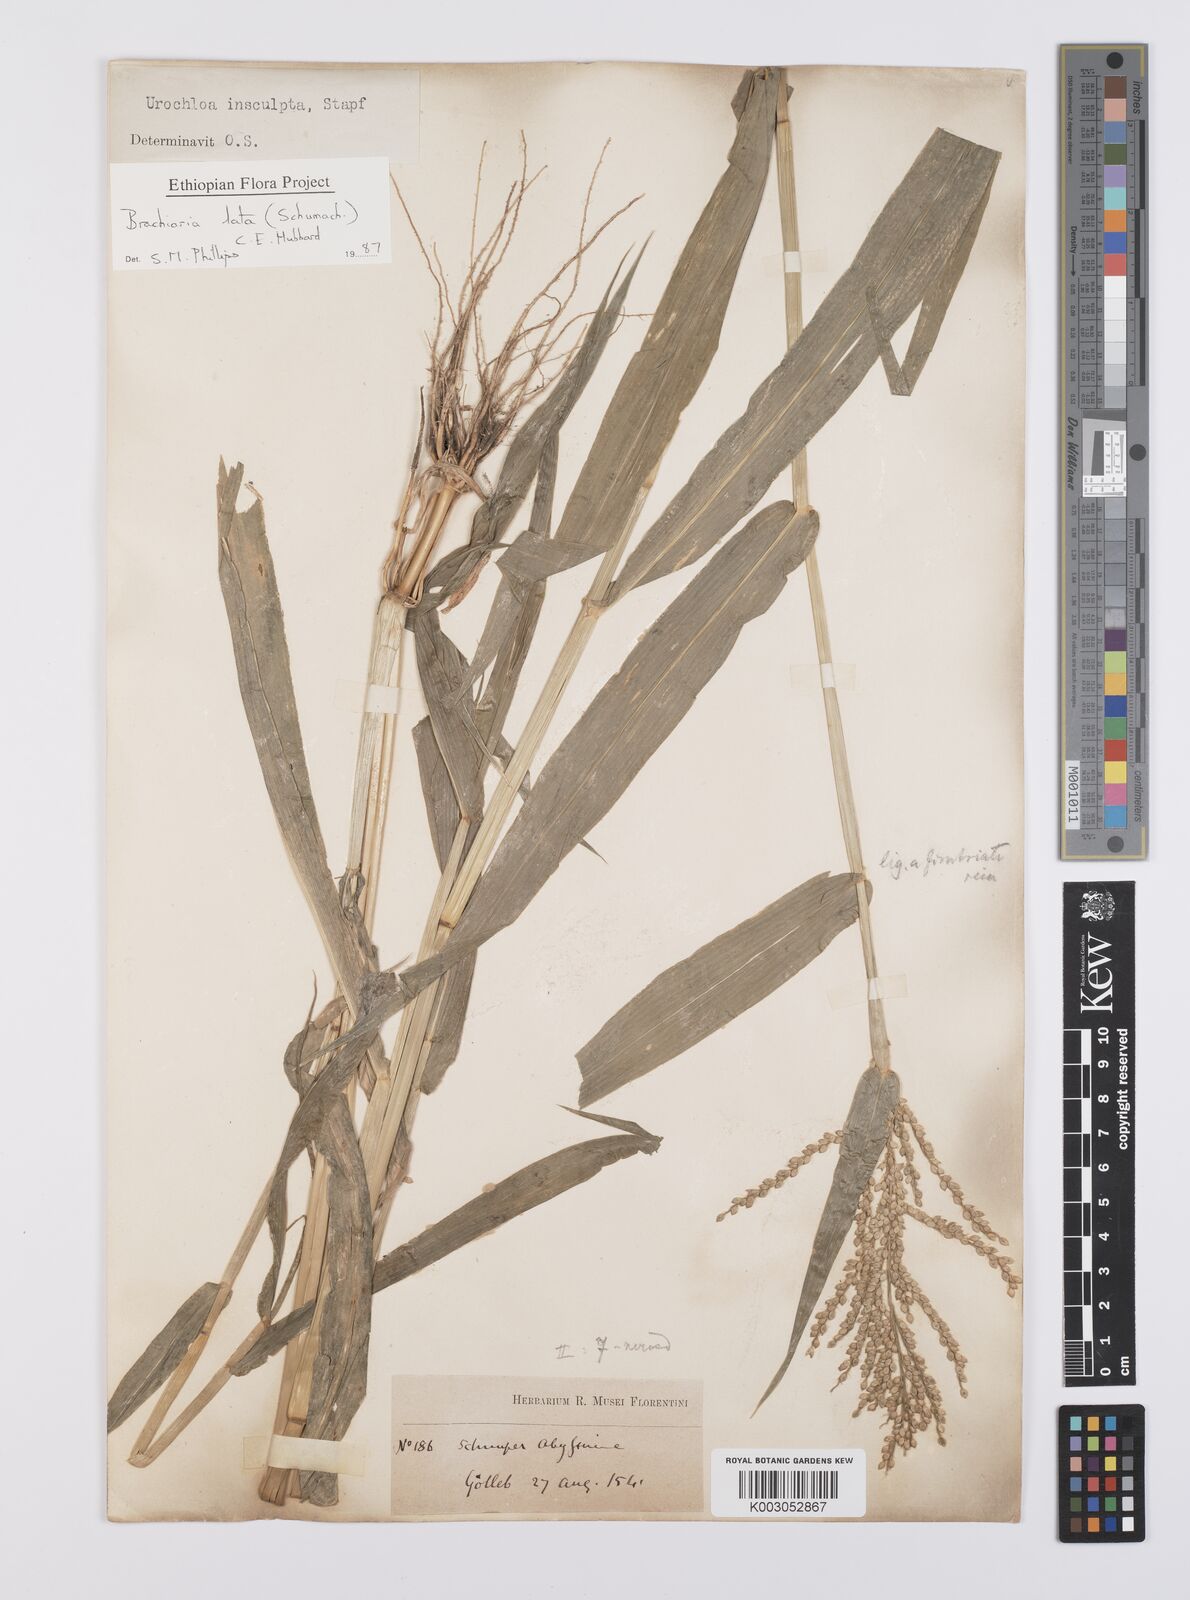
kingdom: Plantae
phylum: Tracheophyta
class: Liliopsida
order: Poales
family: Poaceae
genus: Urochloa
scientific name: Urochloa lata
